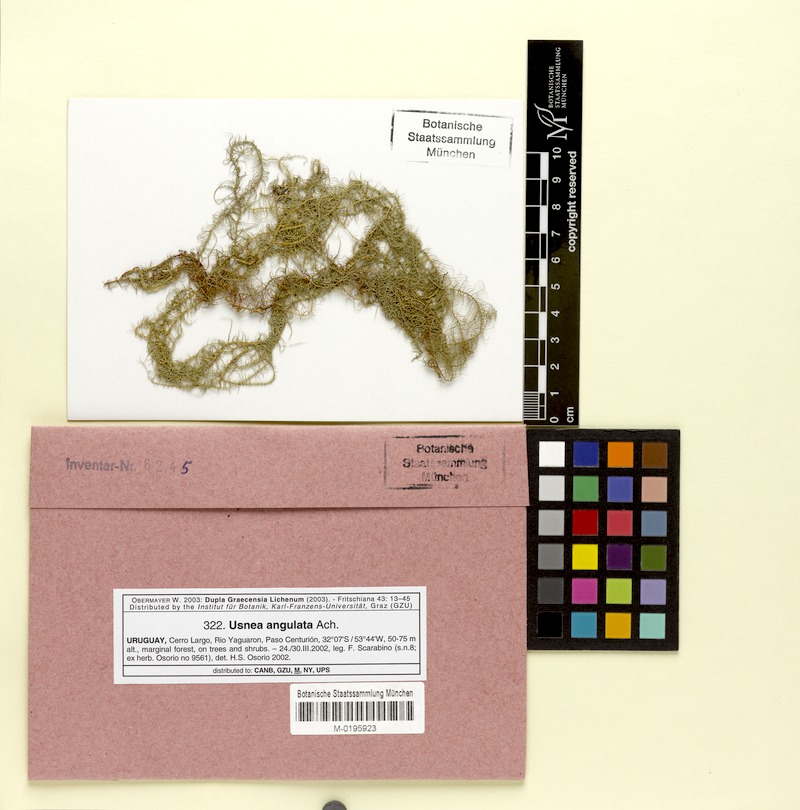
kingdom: Fungi
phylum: Ascomycota
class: Lecanoromycetes
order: Lecanorales
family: Parmeliaceae
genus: Usnea
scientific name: Usnea angulata
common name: Old-man’s beard lichen
